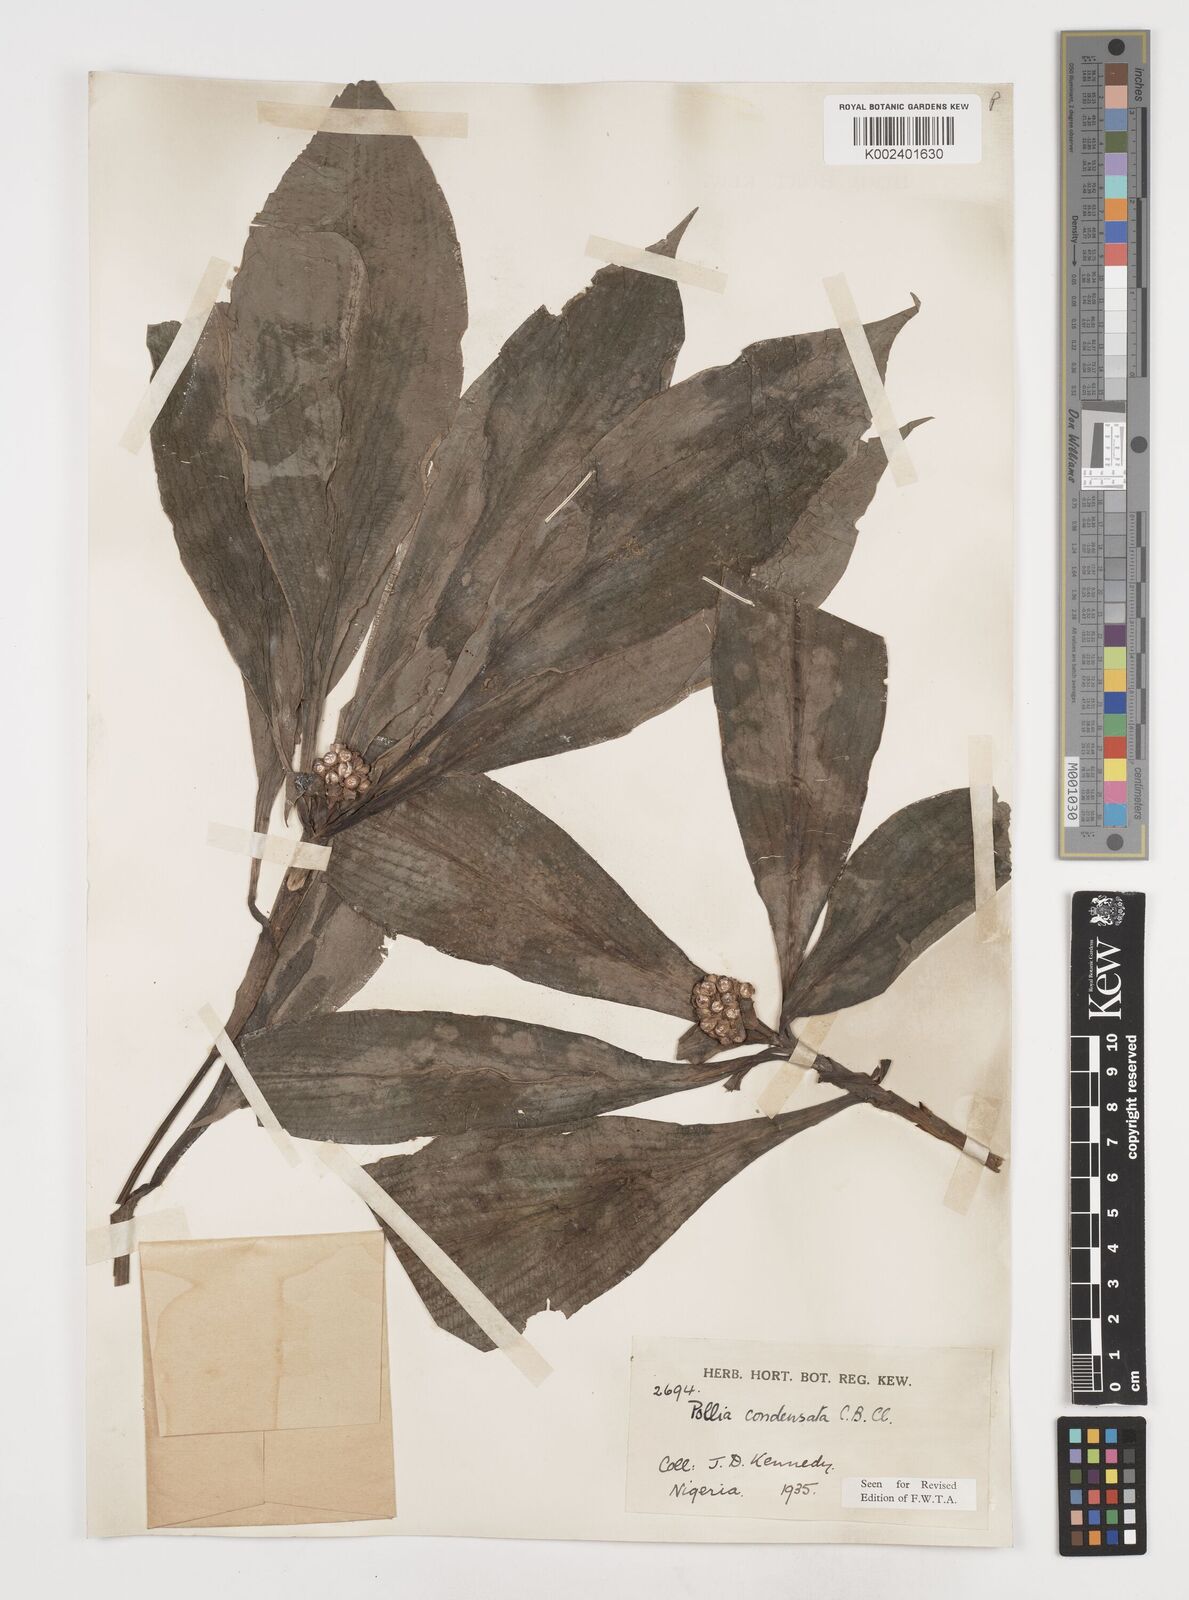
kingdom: Plantae
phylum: Tracheophyta
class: Liliopsida
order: Commelinales
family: Commelinaceae
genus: Pollia
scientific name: Pollia condensata
